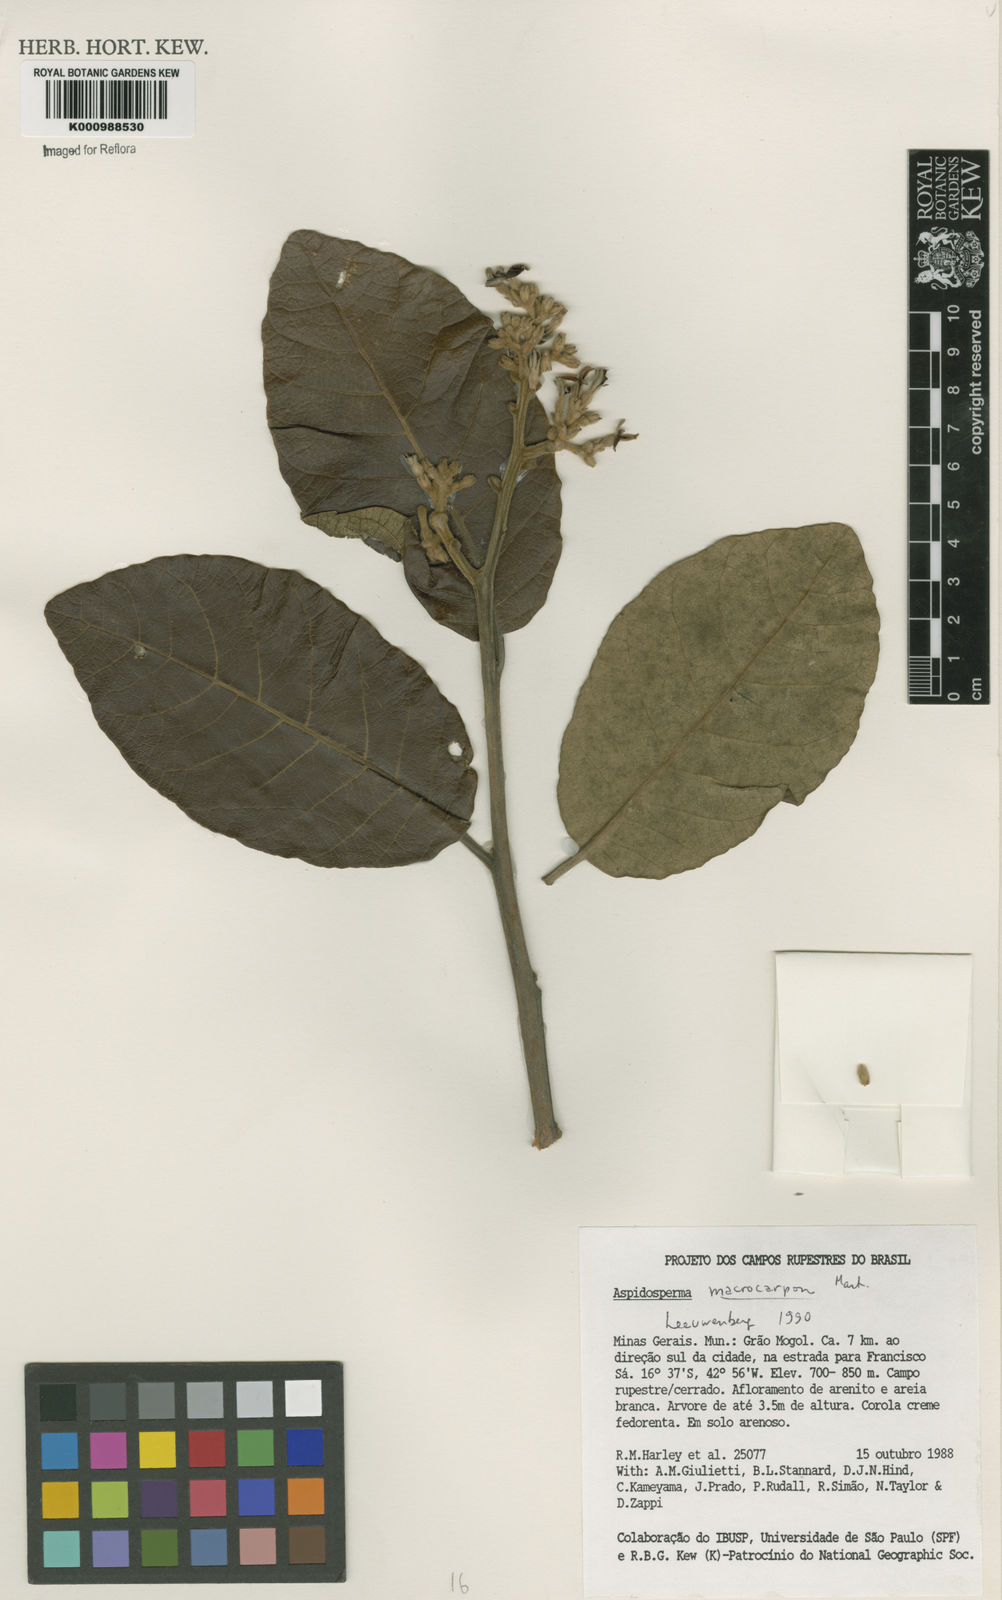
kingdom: Plantae
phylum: Tracheophyta
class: Magnoliopsida
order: Gentianales
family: Apocynaceae
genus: Aspidosperma
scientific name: Aspidosperma macrocarpon
